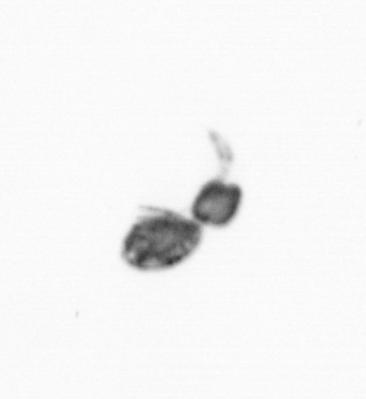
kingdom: Animalia
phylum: Arthropoda
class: Copepoda
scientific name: Copepoda
